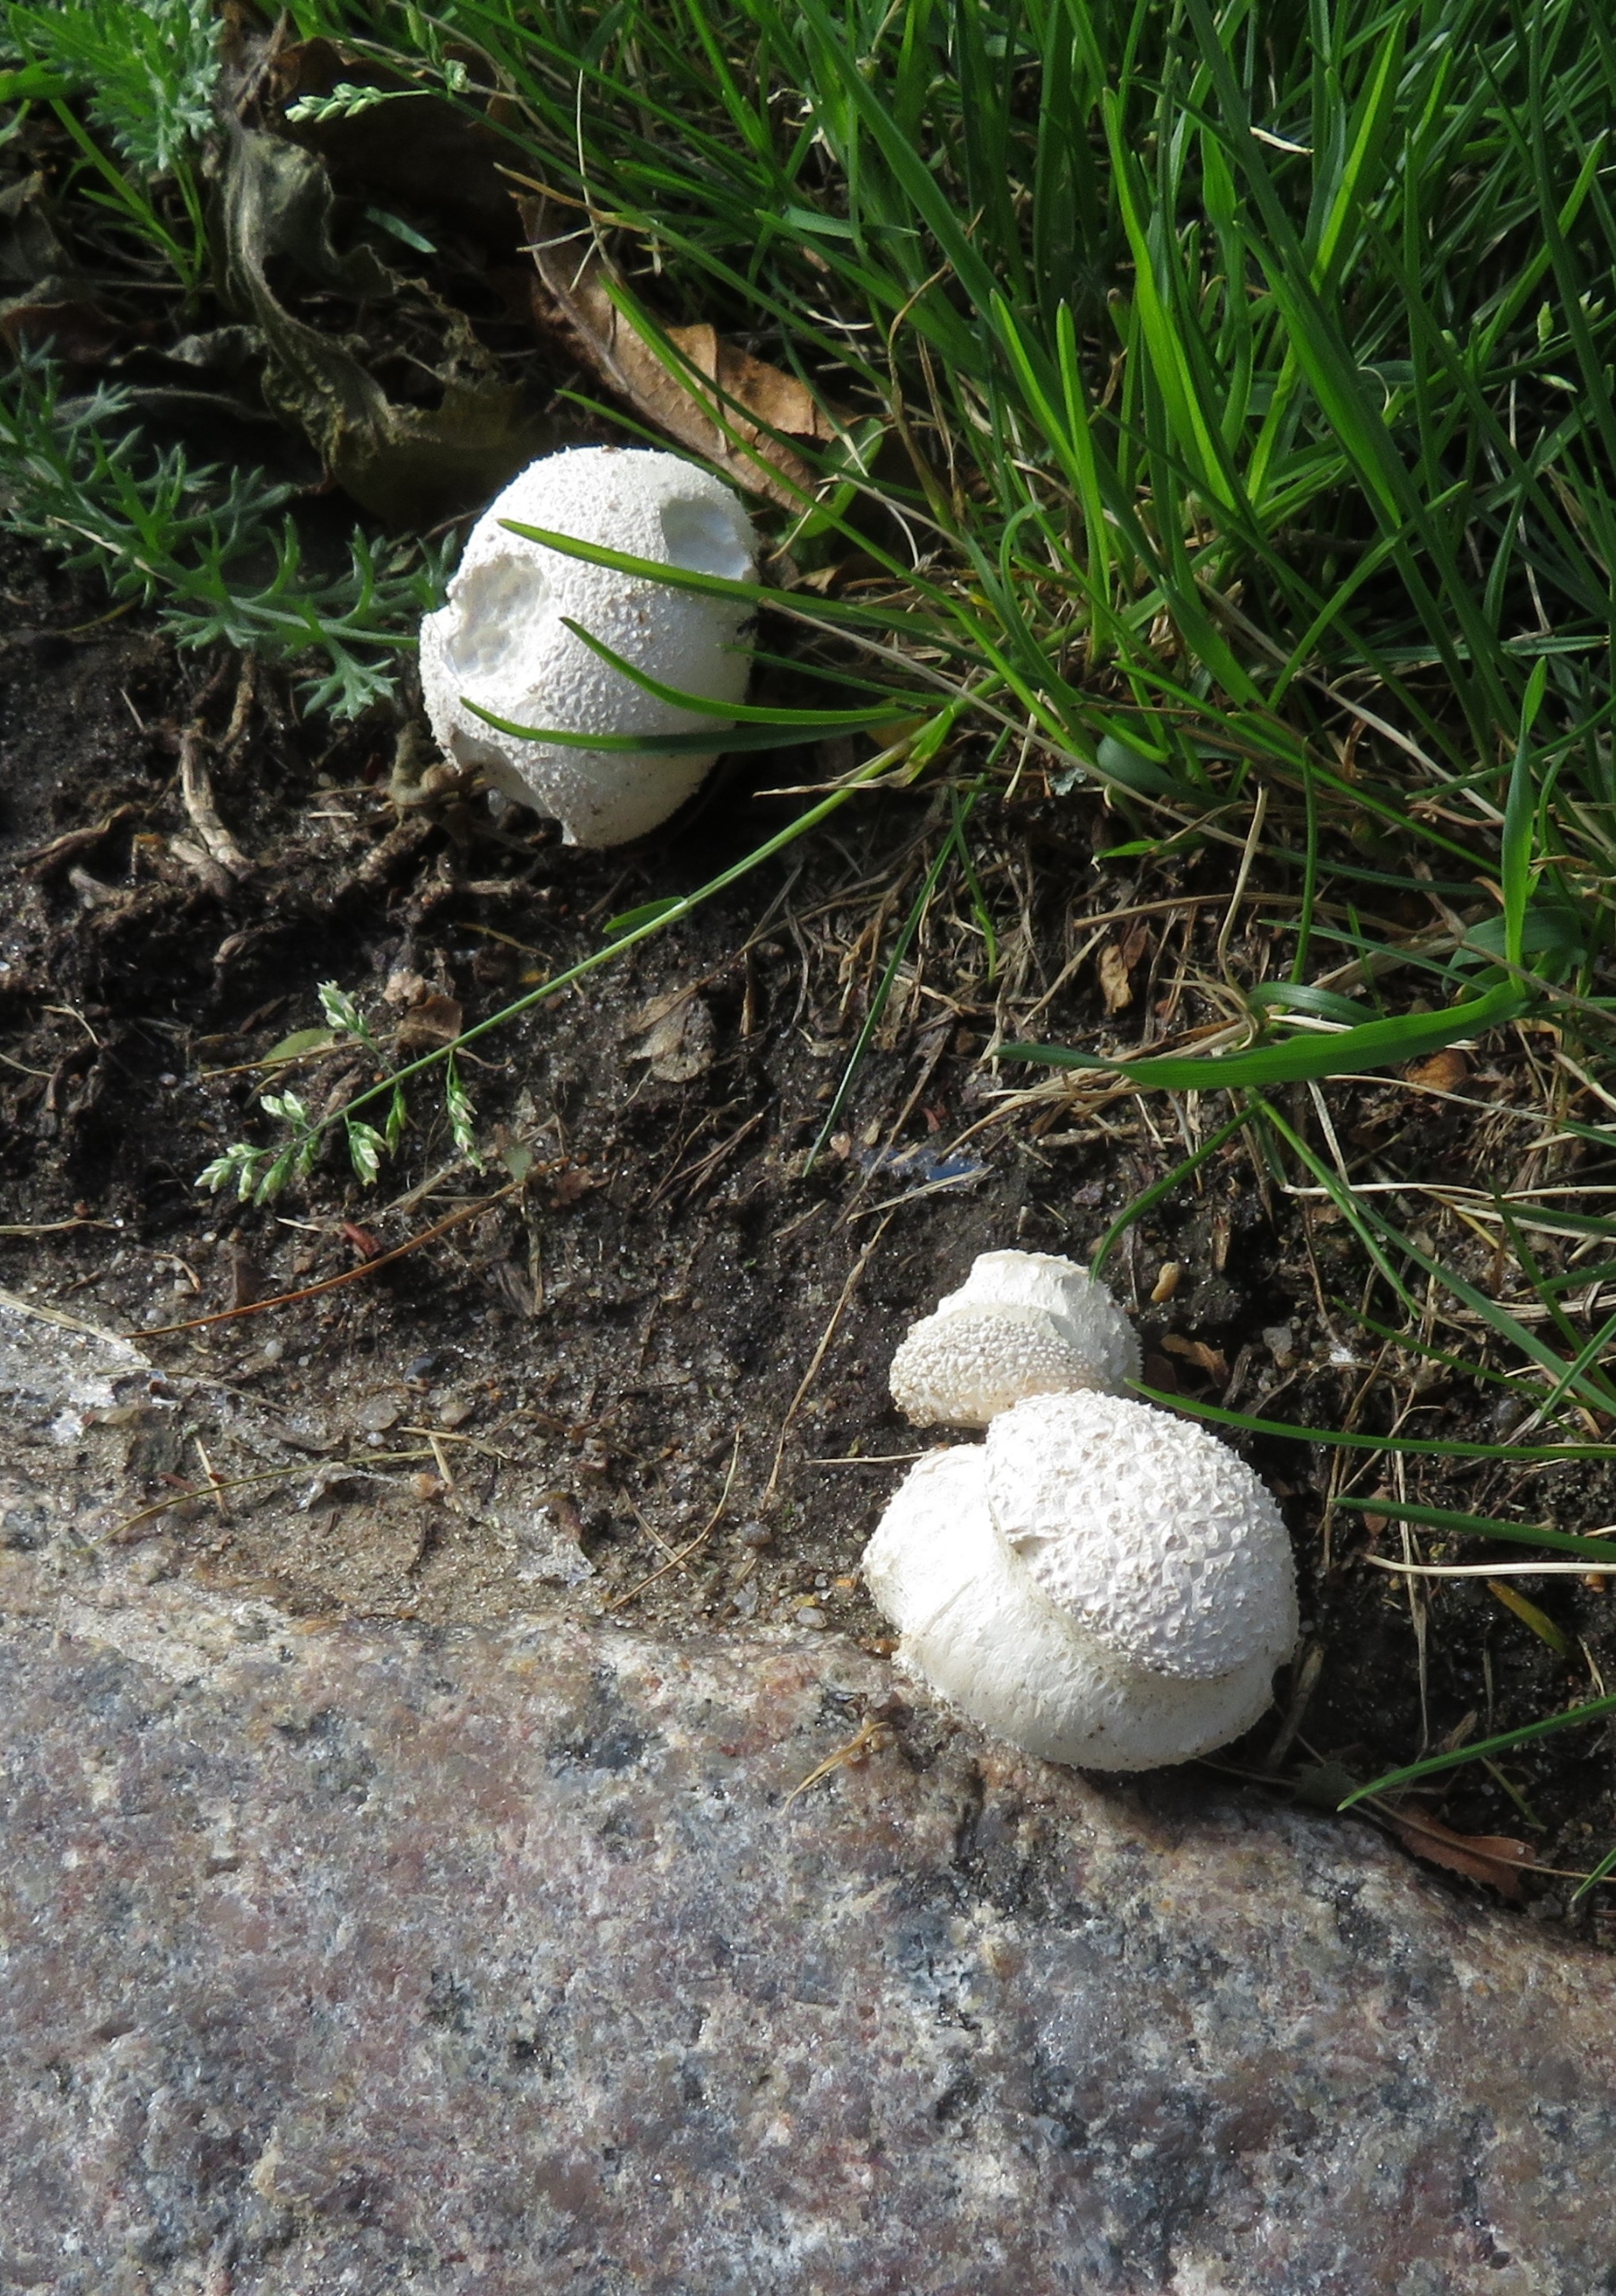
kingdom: Fungi
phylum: Basidiomycota
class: Agaricomycetes
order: Agaricales
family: Lycoperdaceae
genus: Lycoperdon
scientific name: Lycoperdon
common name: Støvbold
